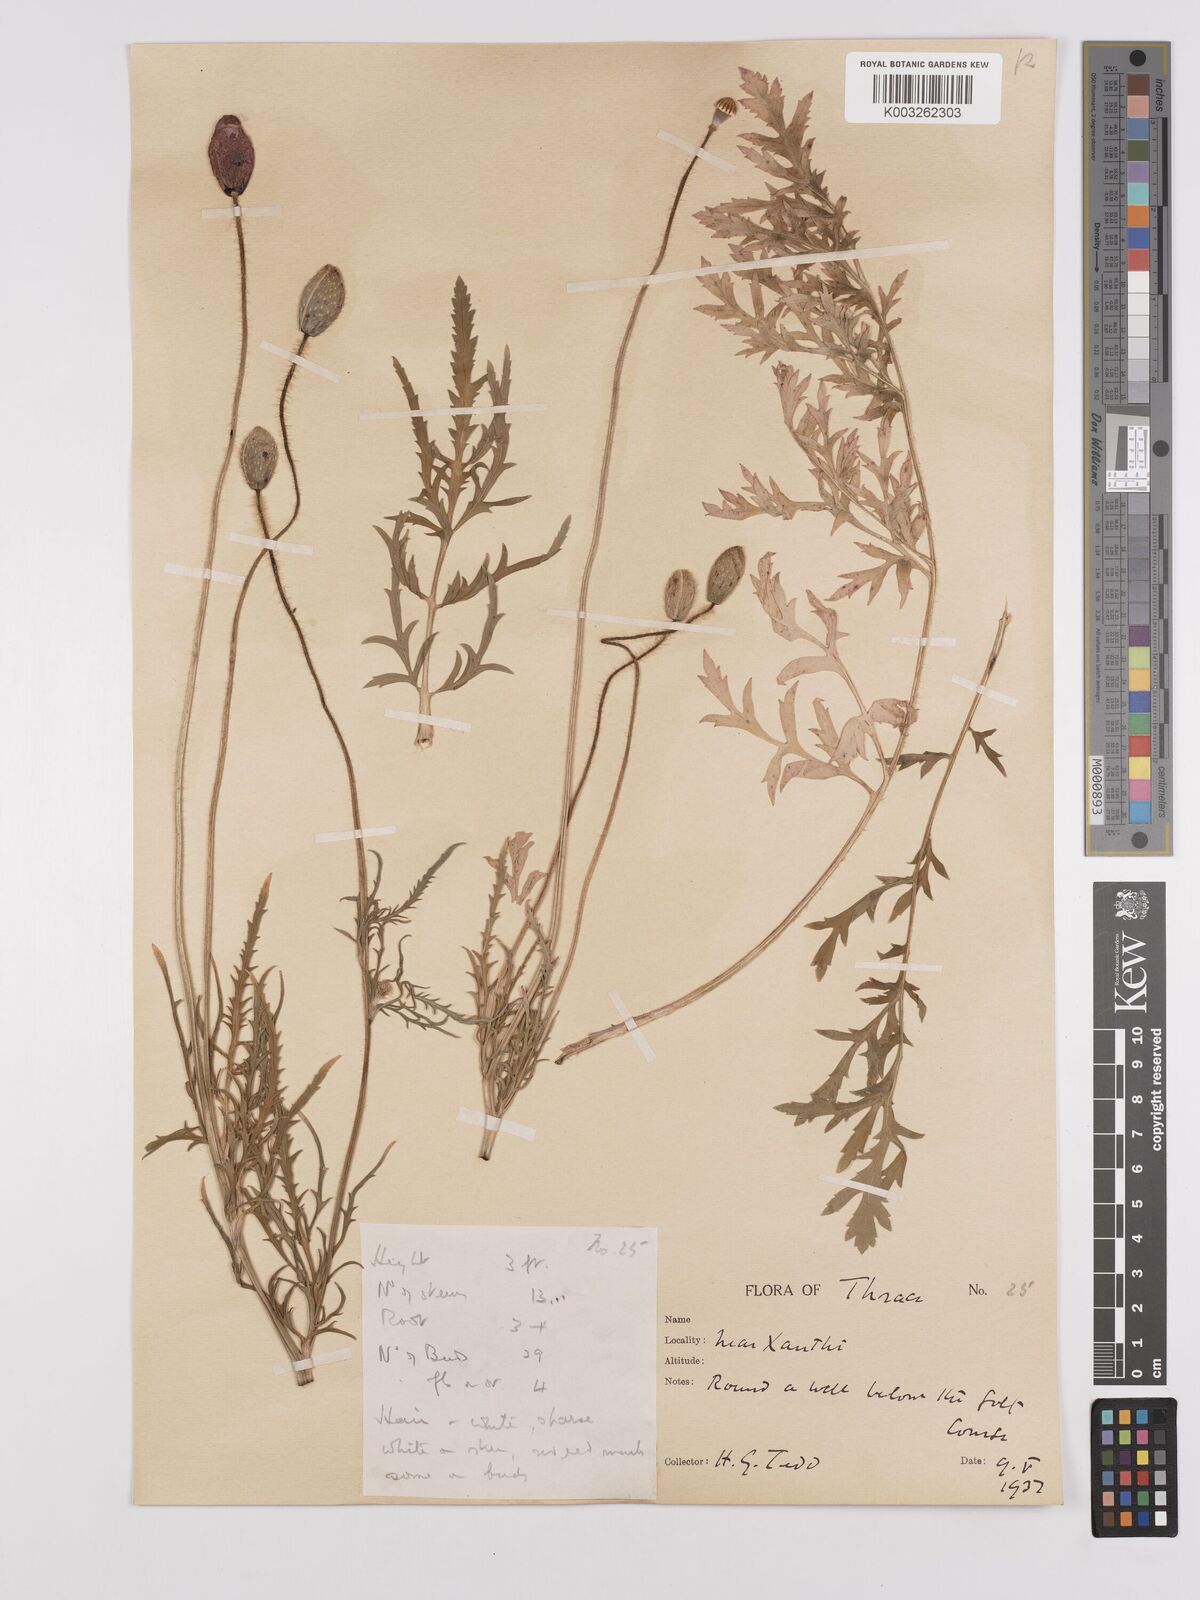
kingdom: Plantae
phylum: Tracheophyta
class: Magnoliopsida
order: Ranunculales
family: Papaveraceae
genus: Papaver
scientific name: Papaver rhoeas
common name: Corn poppy
